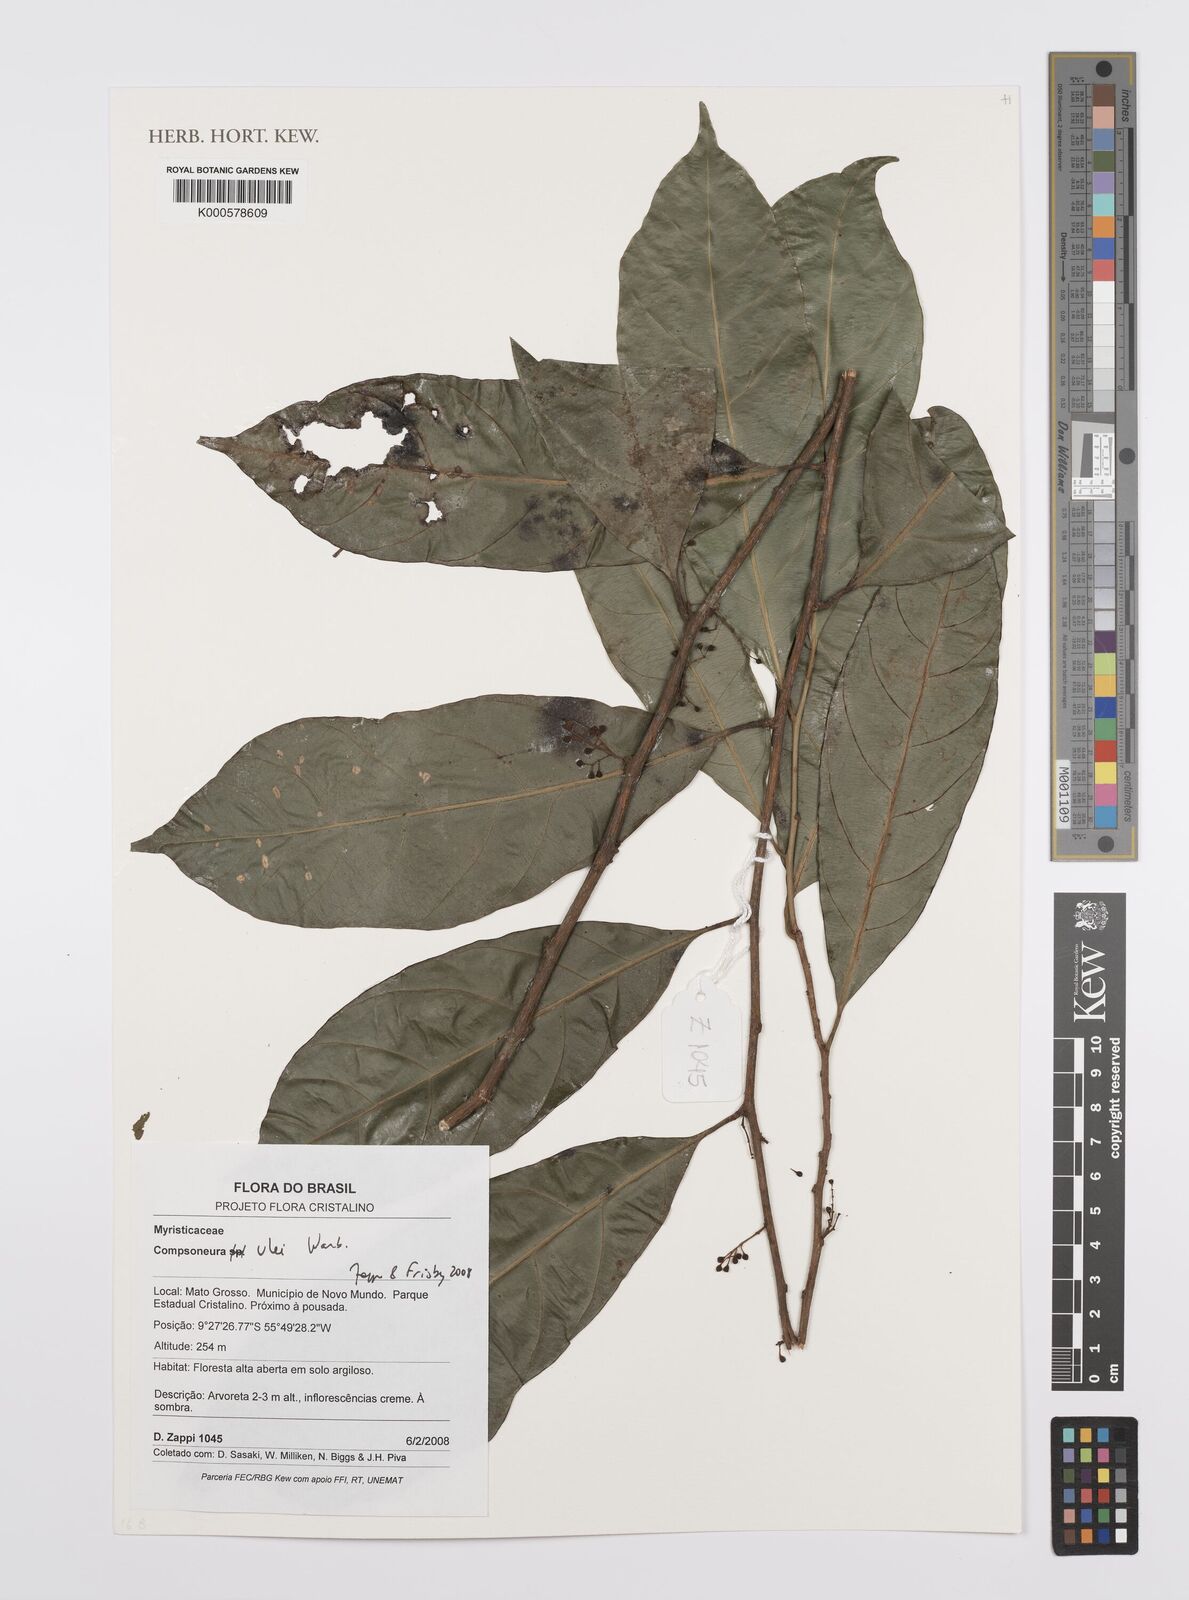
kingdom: Plantae
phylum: Tracheophyta
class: Magnoliopsida
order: Magnoliales
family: Myristicaceae
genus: Compsoneura
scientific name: Compsoneura ulei
